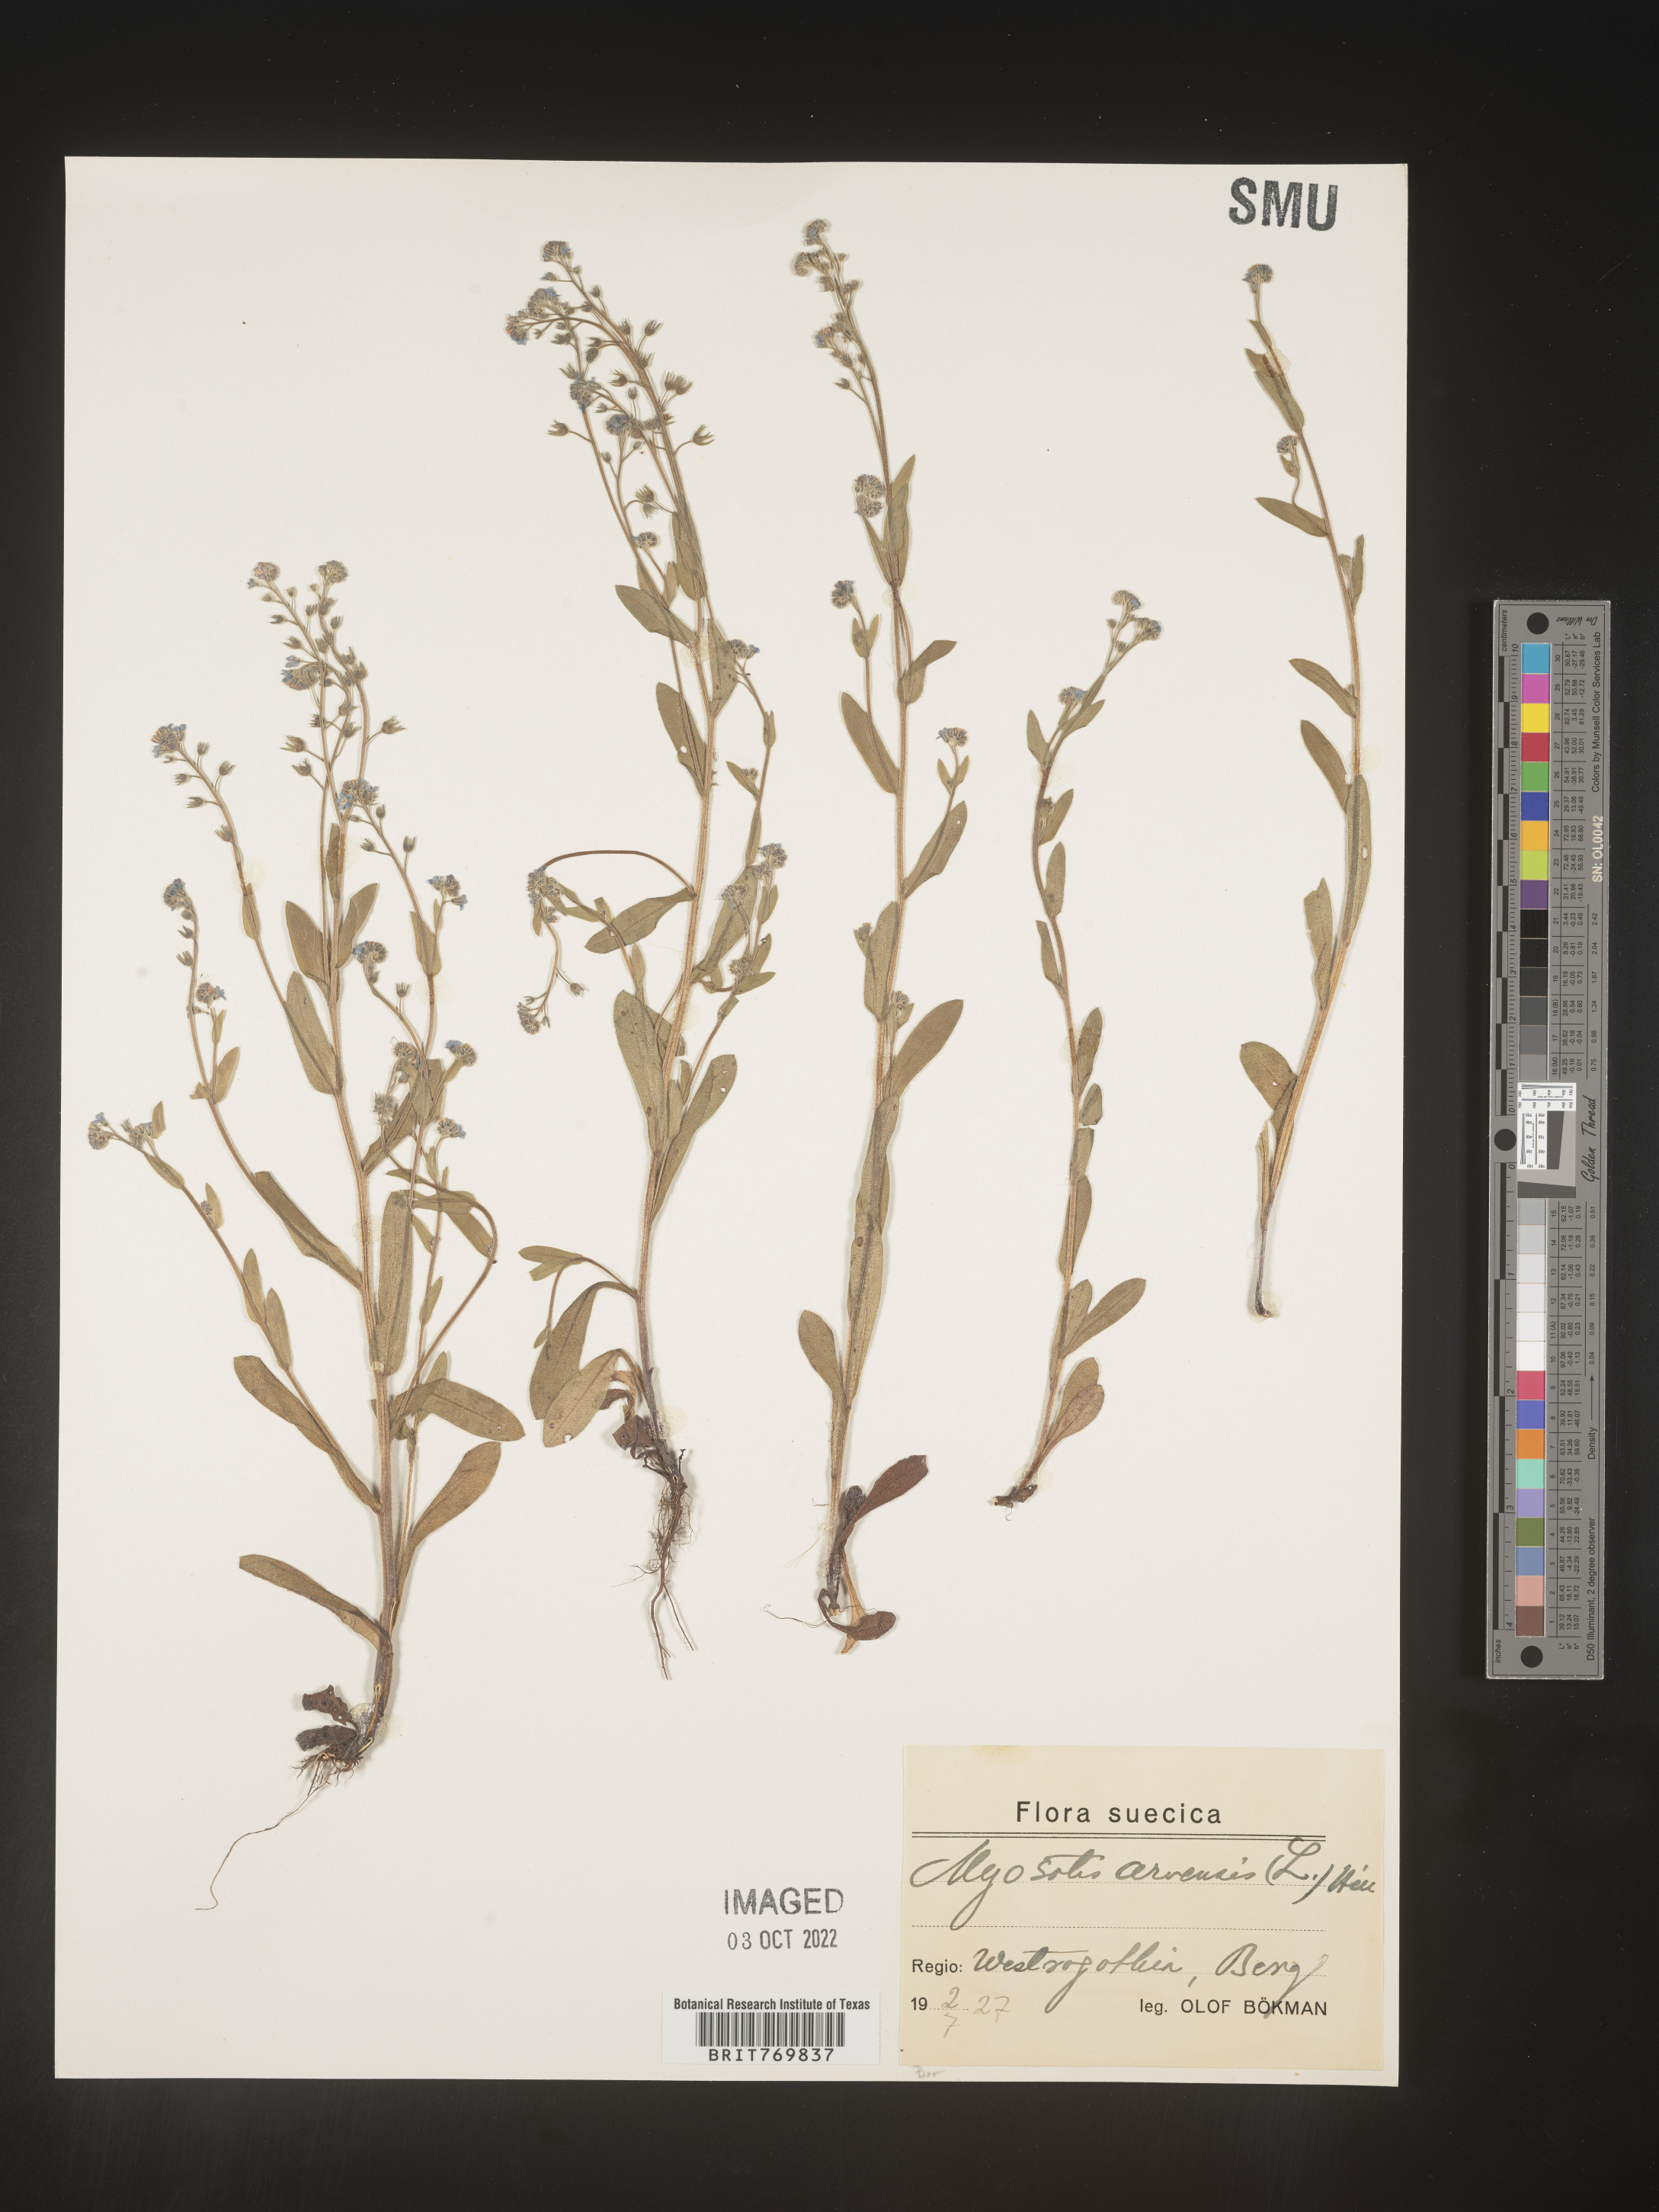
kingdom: Plantae
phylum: Tracheophyta
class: Magnoliopsida
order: Boraginales
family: Boraginaceae
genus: Myosotis
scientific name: Myosotis
